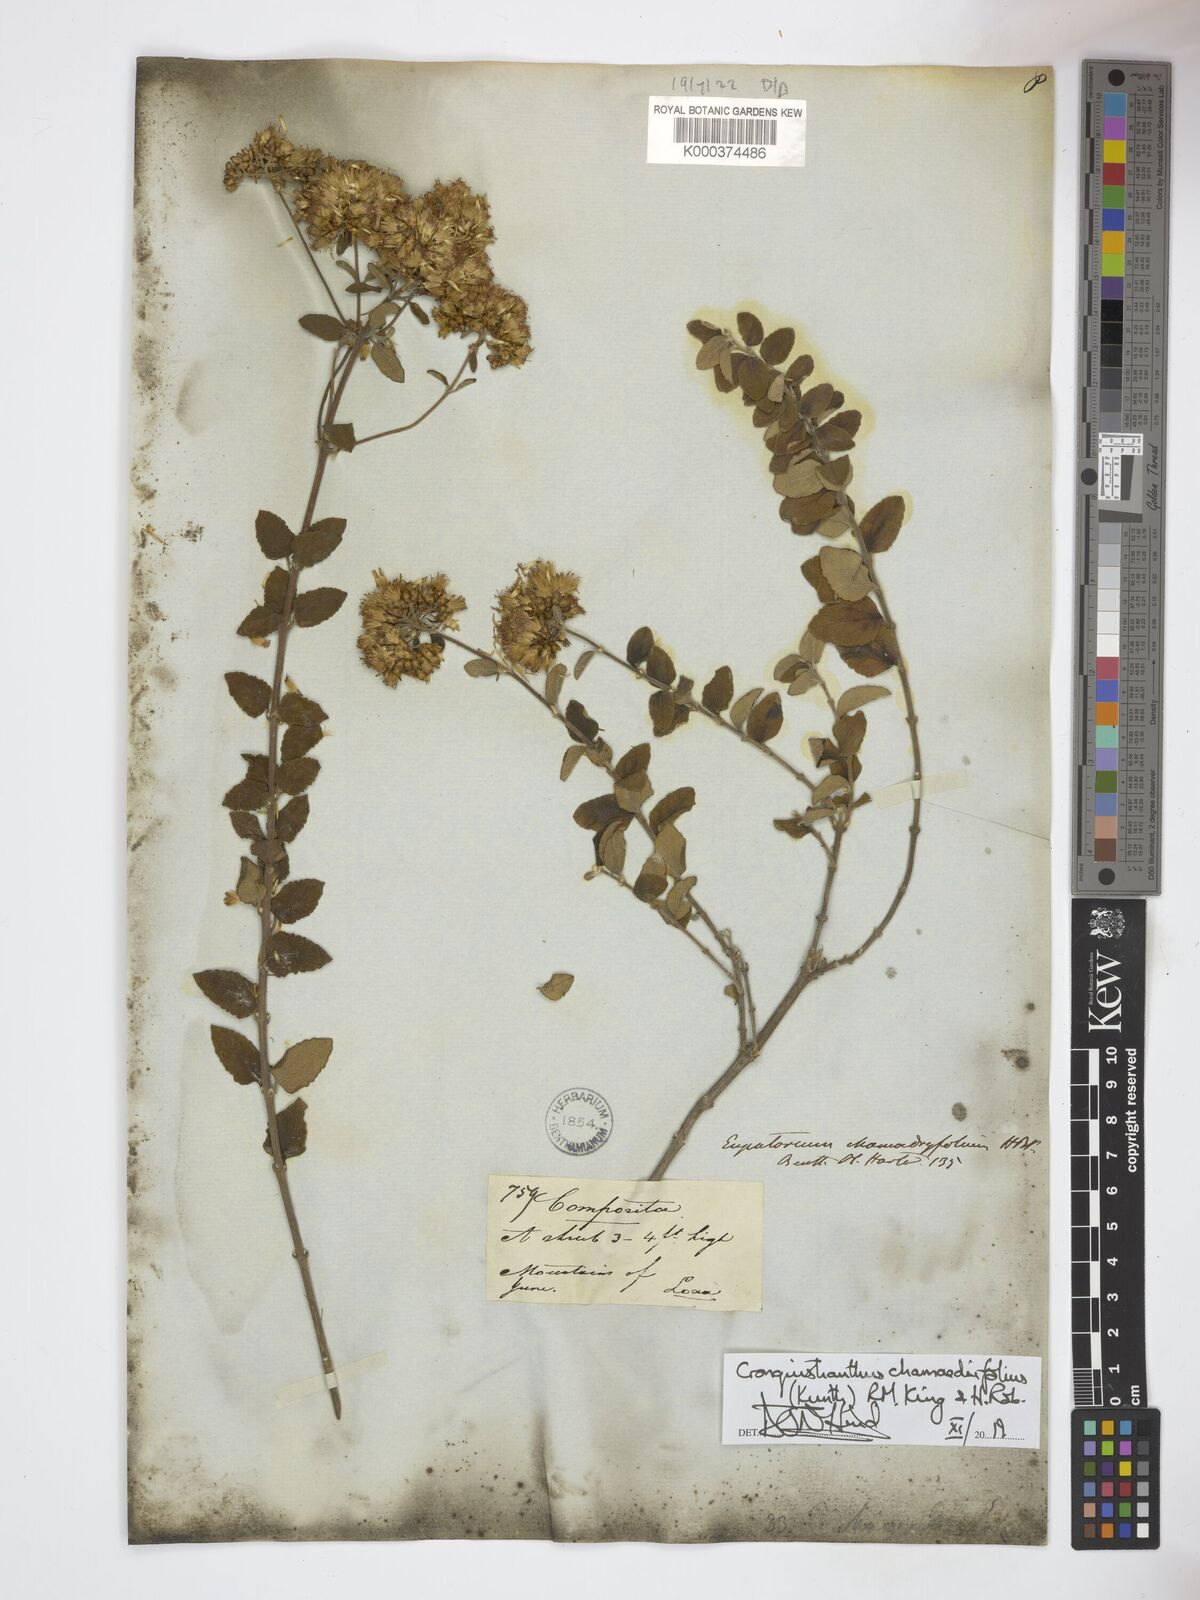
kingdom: Plantae
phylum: Tracheophyta
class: Magnoliopsida
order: Asterales
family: Asteraceae
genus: Cronquistianthus
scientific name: Cronquistianthus chamaedrifolius
